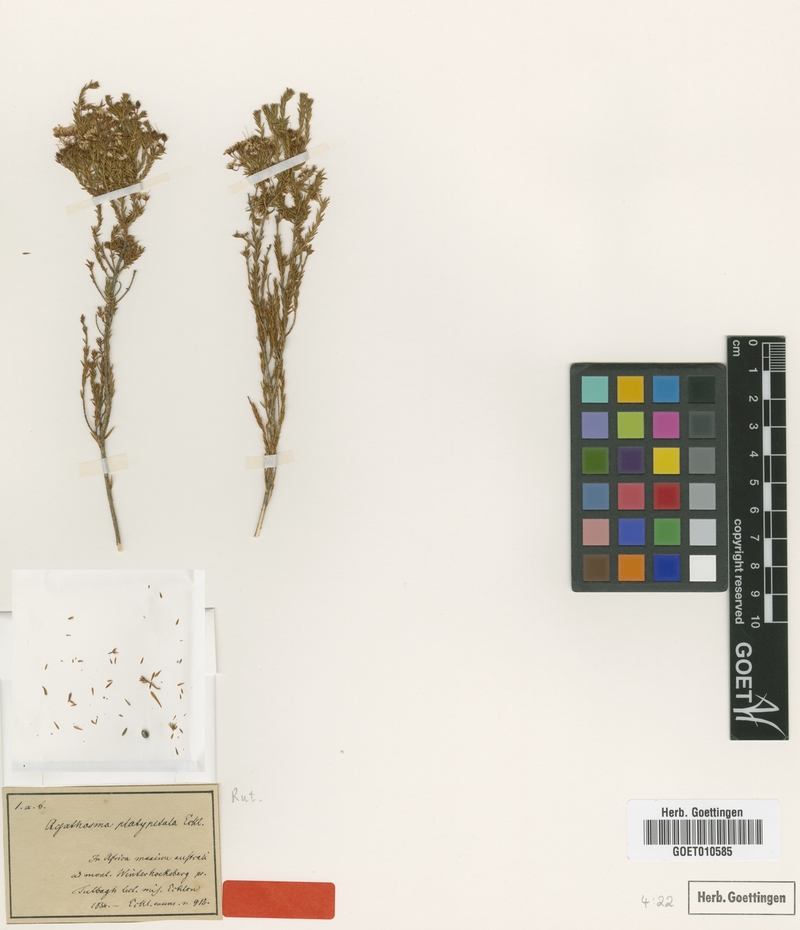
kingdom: Plantae
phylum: Tracheophyta
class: Magnoliopsida
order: Sapindales
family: Rutaceae
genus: Agathosma
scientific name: Agathosma capensis
